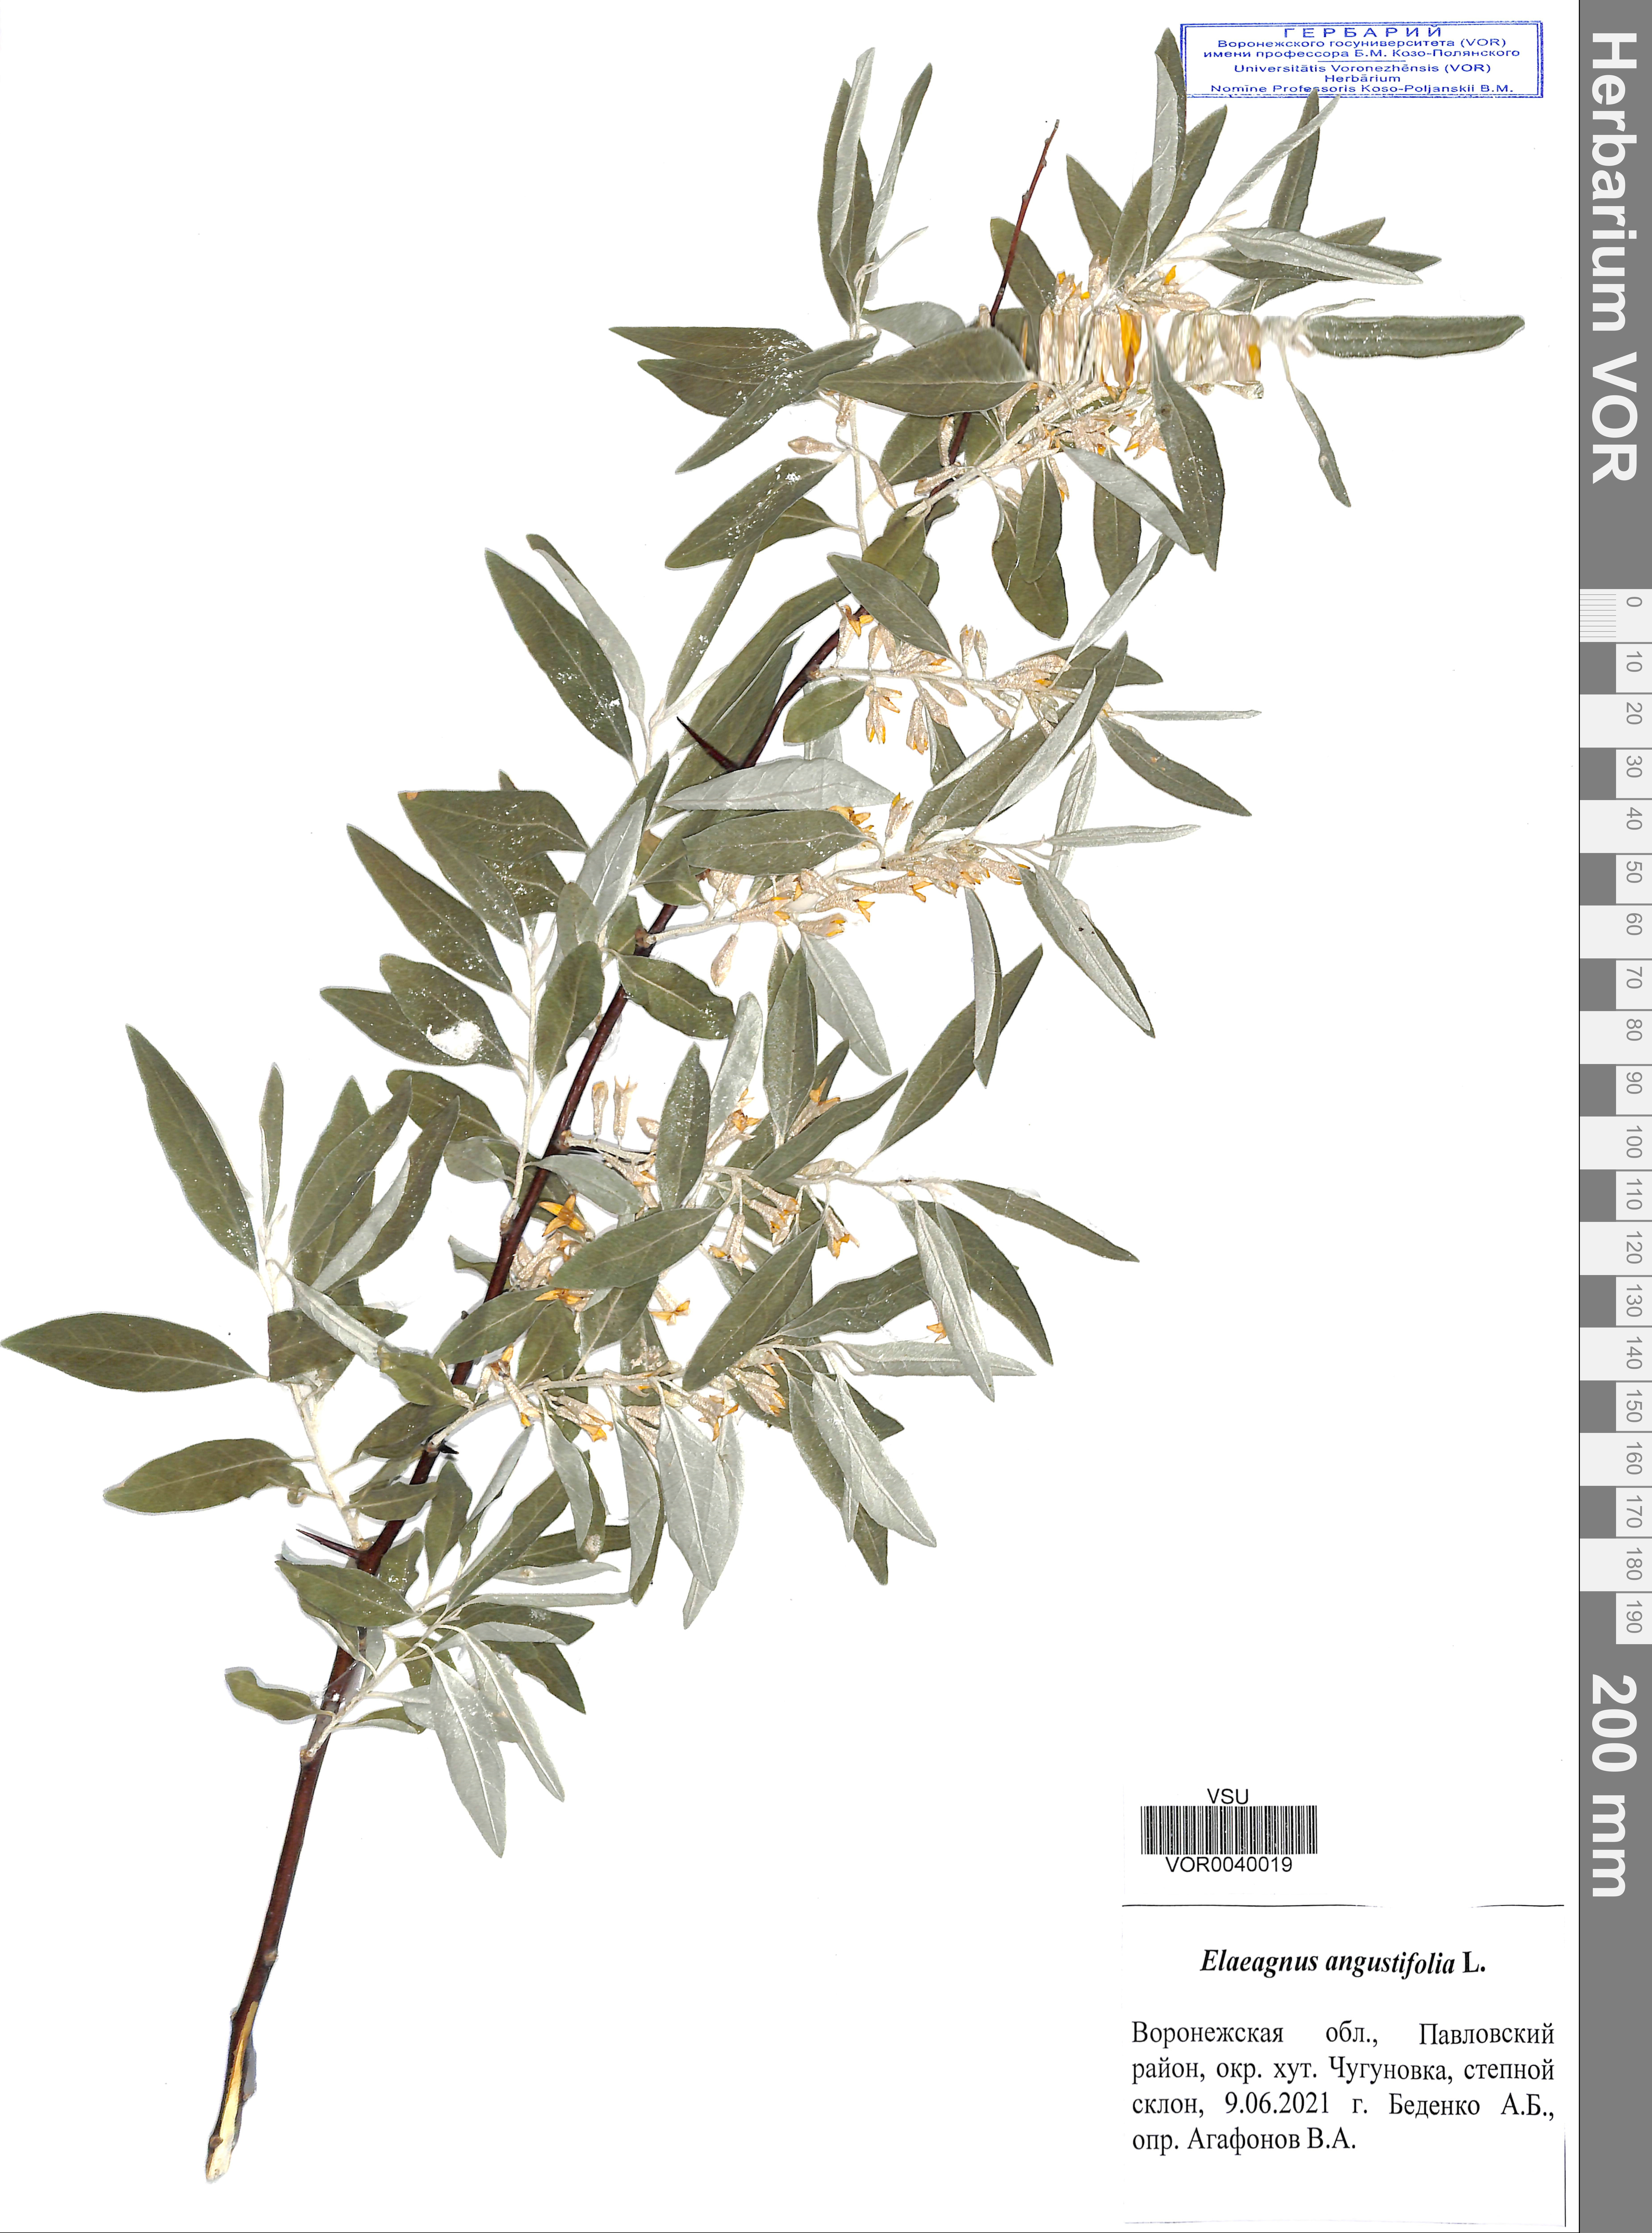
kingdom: Plantae
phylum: Tracheophyta
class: Magnoliopsida
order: Rosales
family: Elaeagnaceae
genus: Elaeagnus
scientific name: Elaeagnus angustifolia
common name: Russian olive
